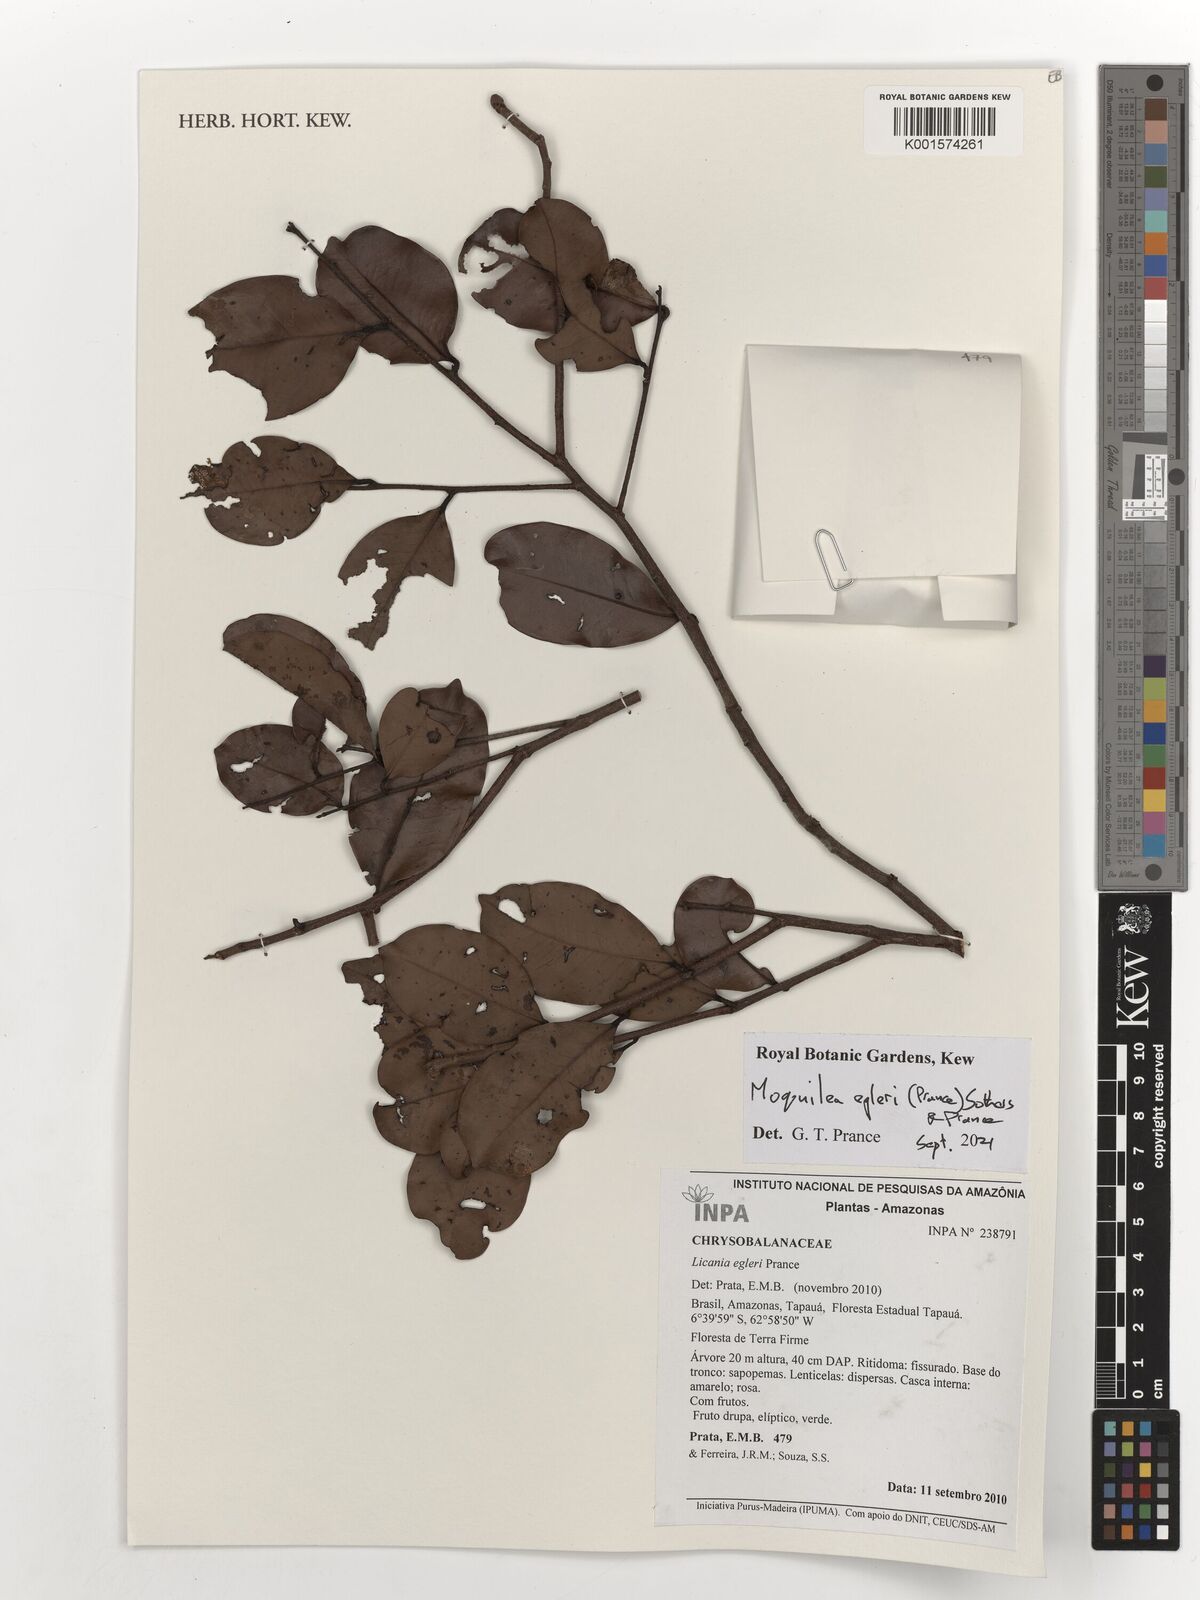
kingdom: Plantae
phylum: Tracheophyta
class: Magnoliopsida
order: Malpighiales
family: Chrysobalanaceae
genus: Moquilea
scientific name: Moquilea egleri
